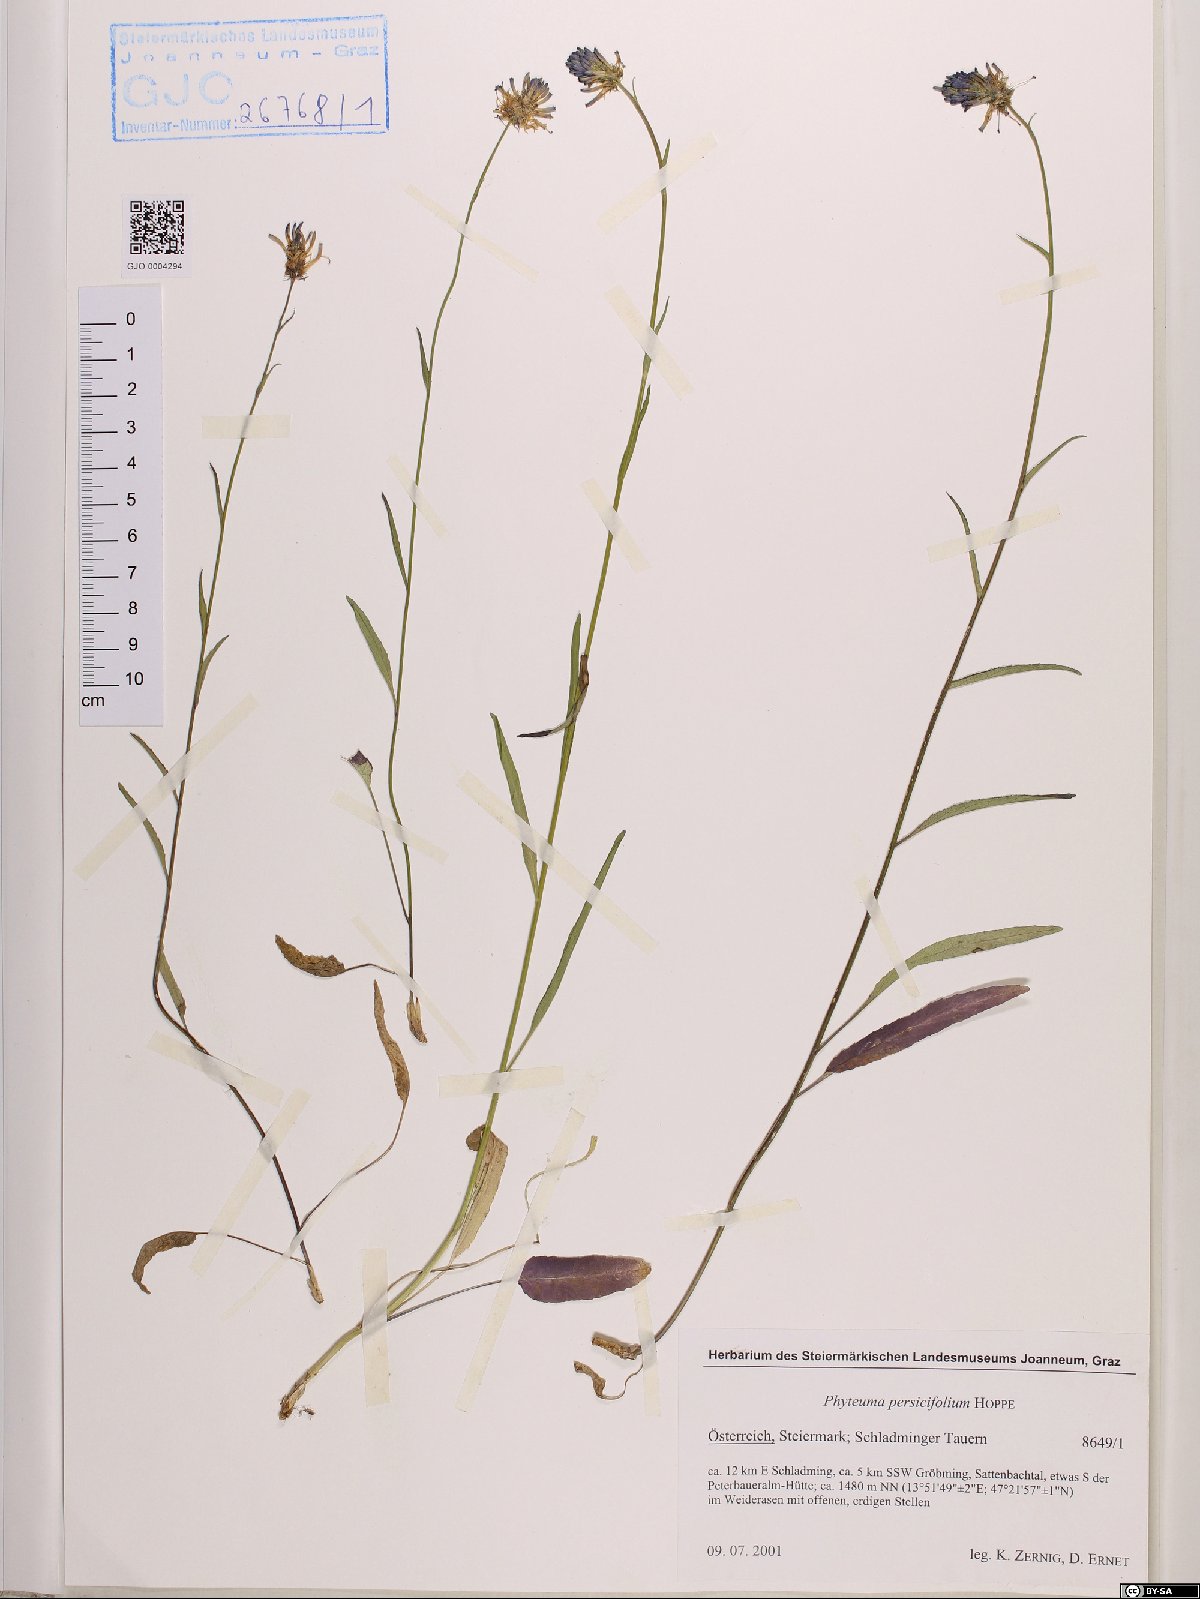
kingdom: Plantae
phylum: Tracheophyta
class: Magnoliopsida
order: Asterales
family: Campanulaceae
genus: Phyteuma
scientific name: Phyteuma persicifolium
